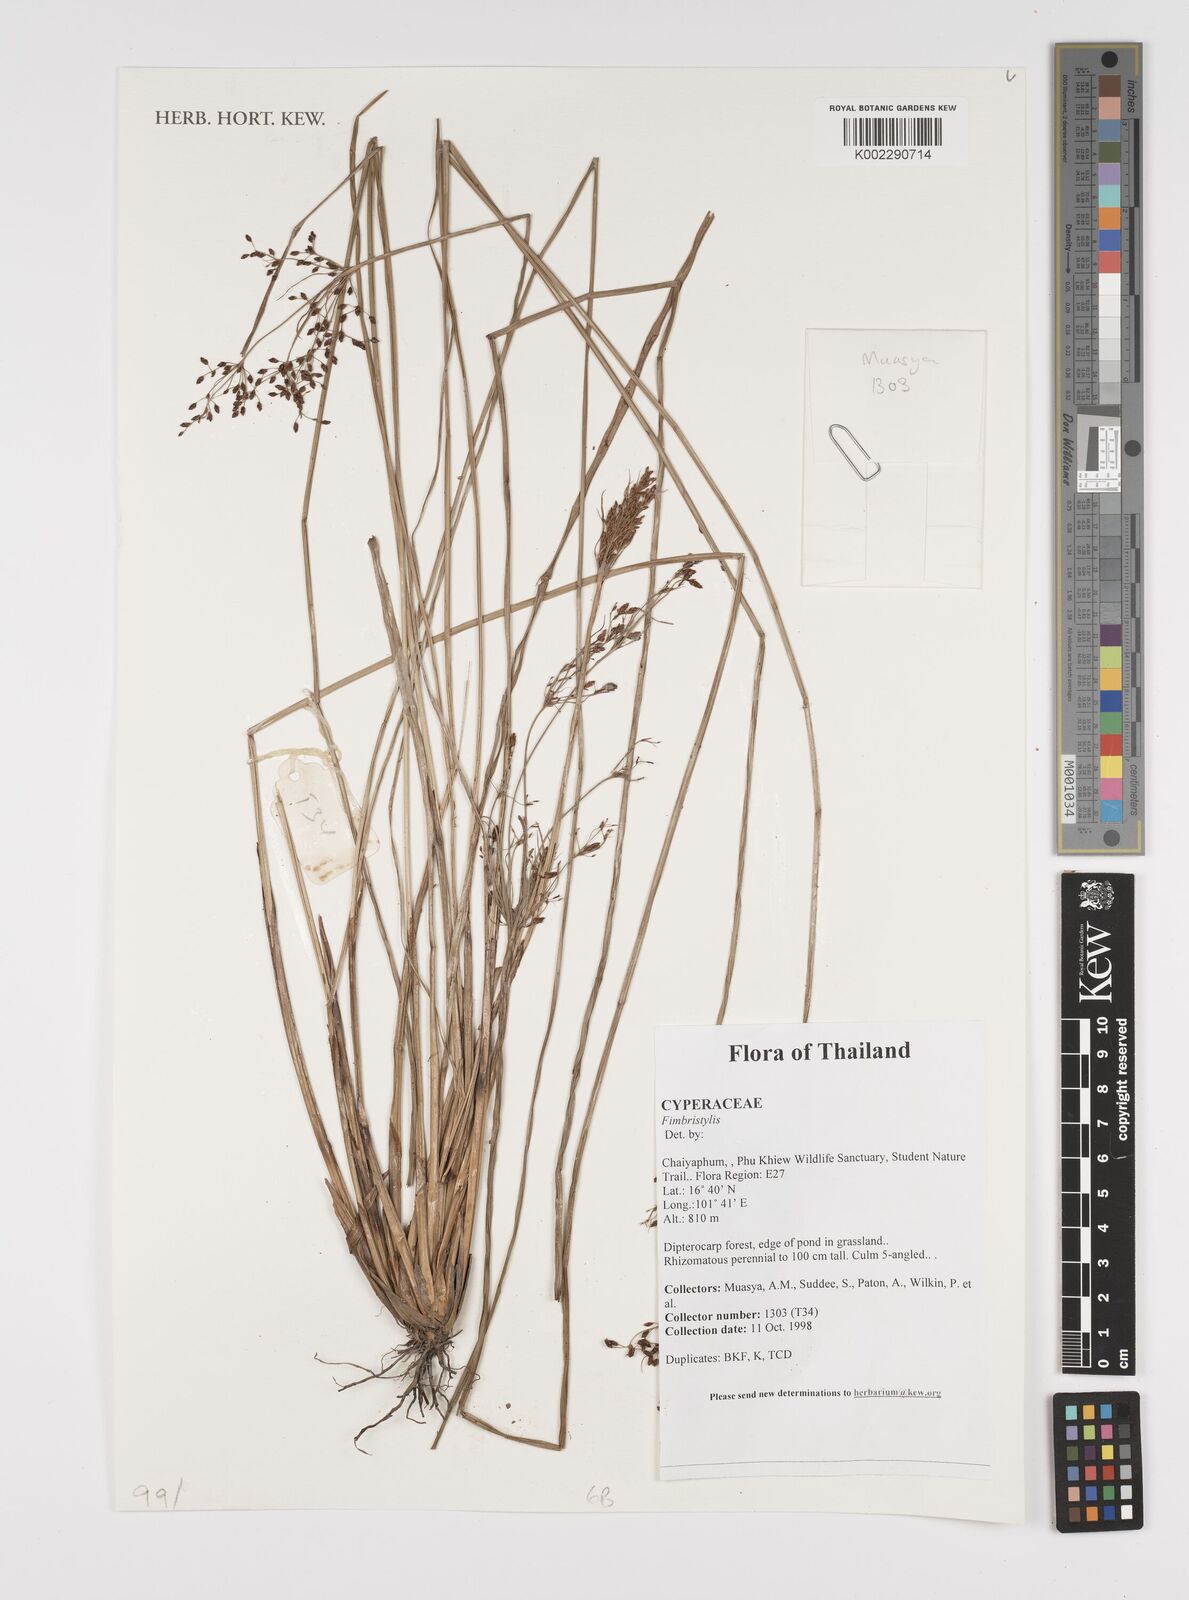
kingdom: Plantae
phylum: Tracheophyta
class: Liliopsida
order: Poales
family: Cyperaceae
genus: Fimbristylis
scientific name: Fimbristylis
